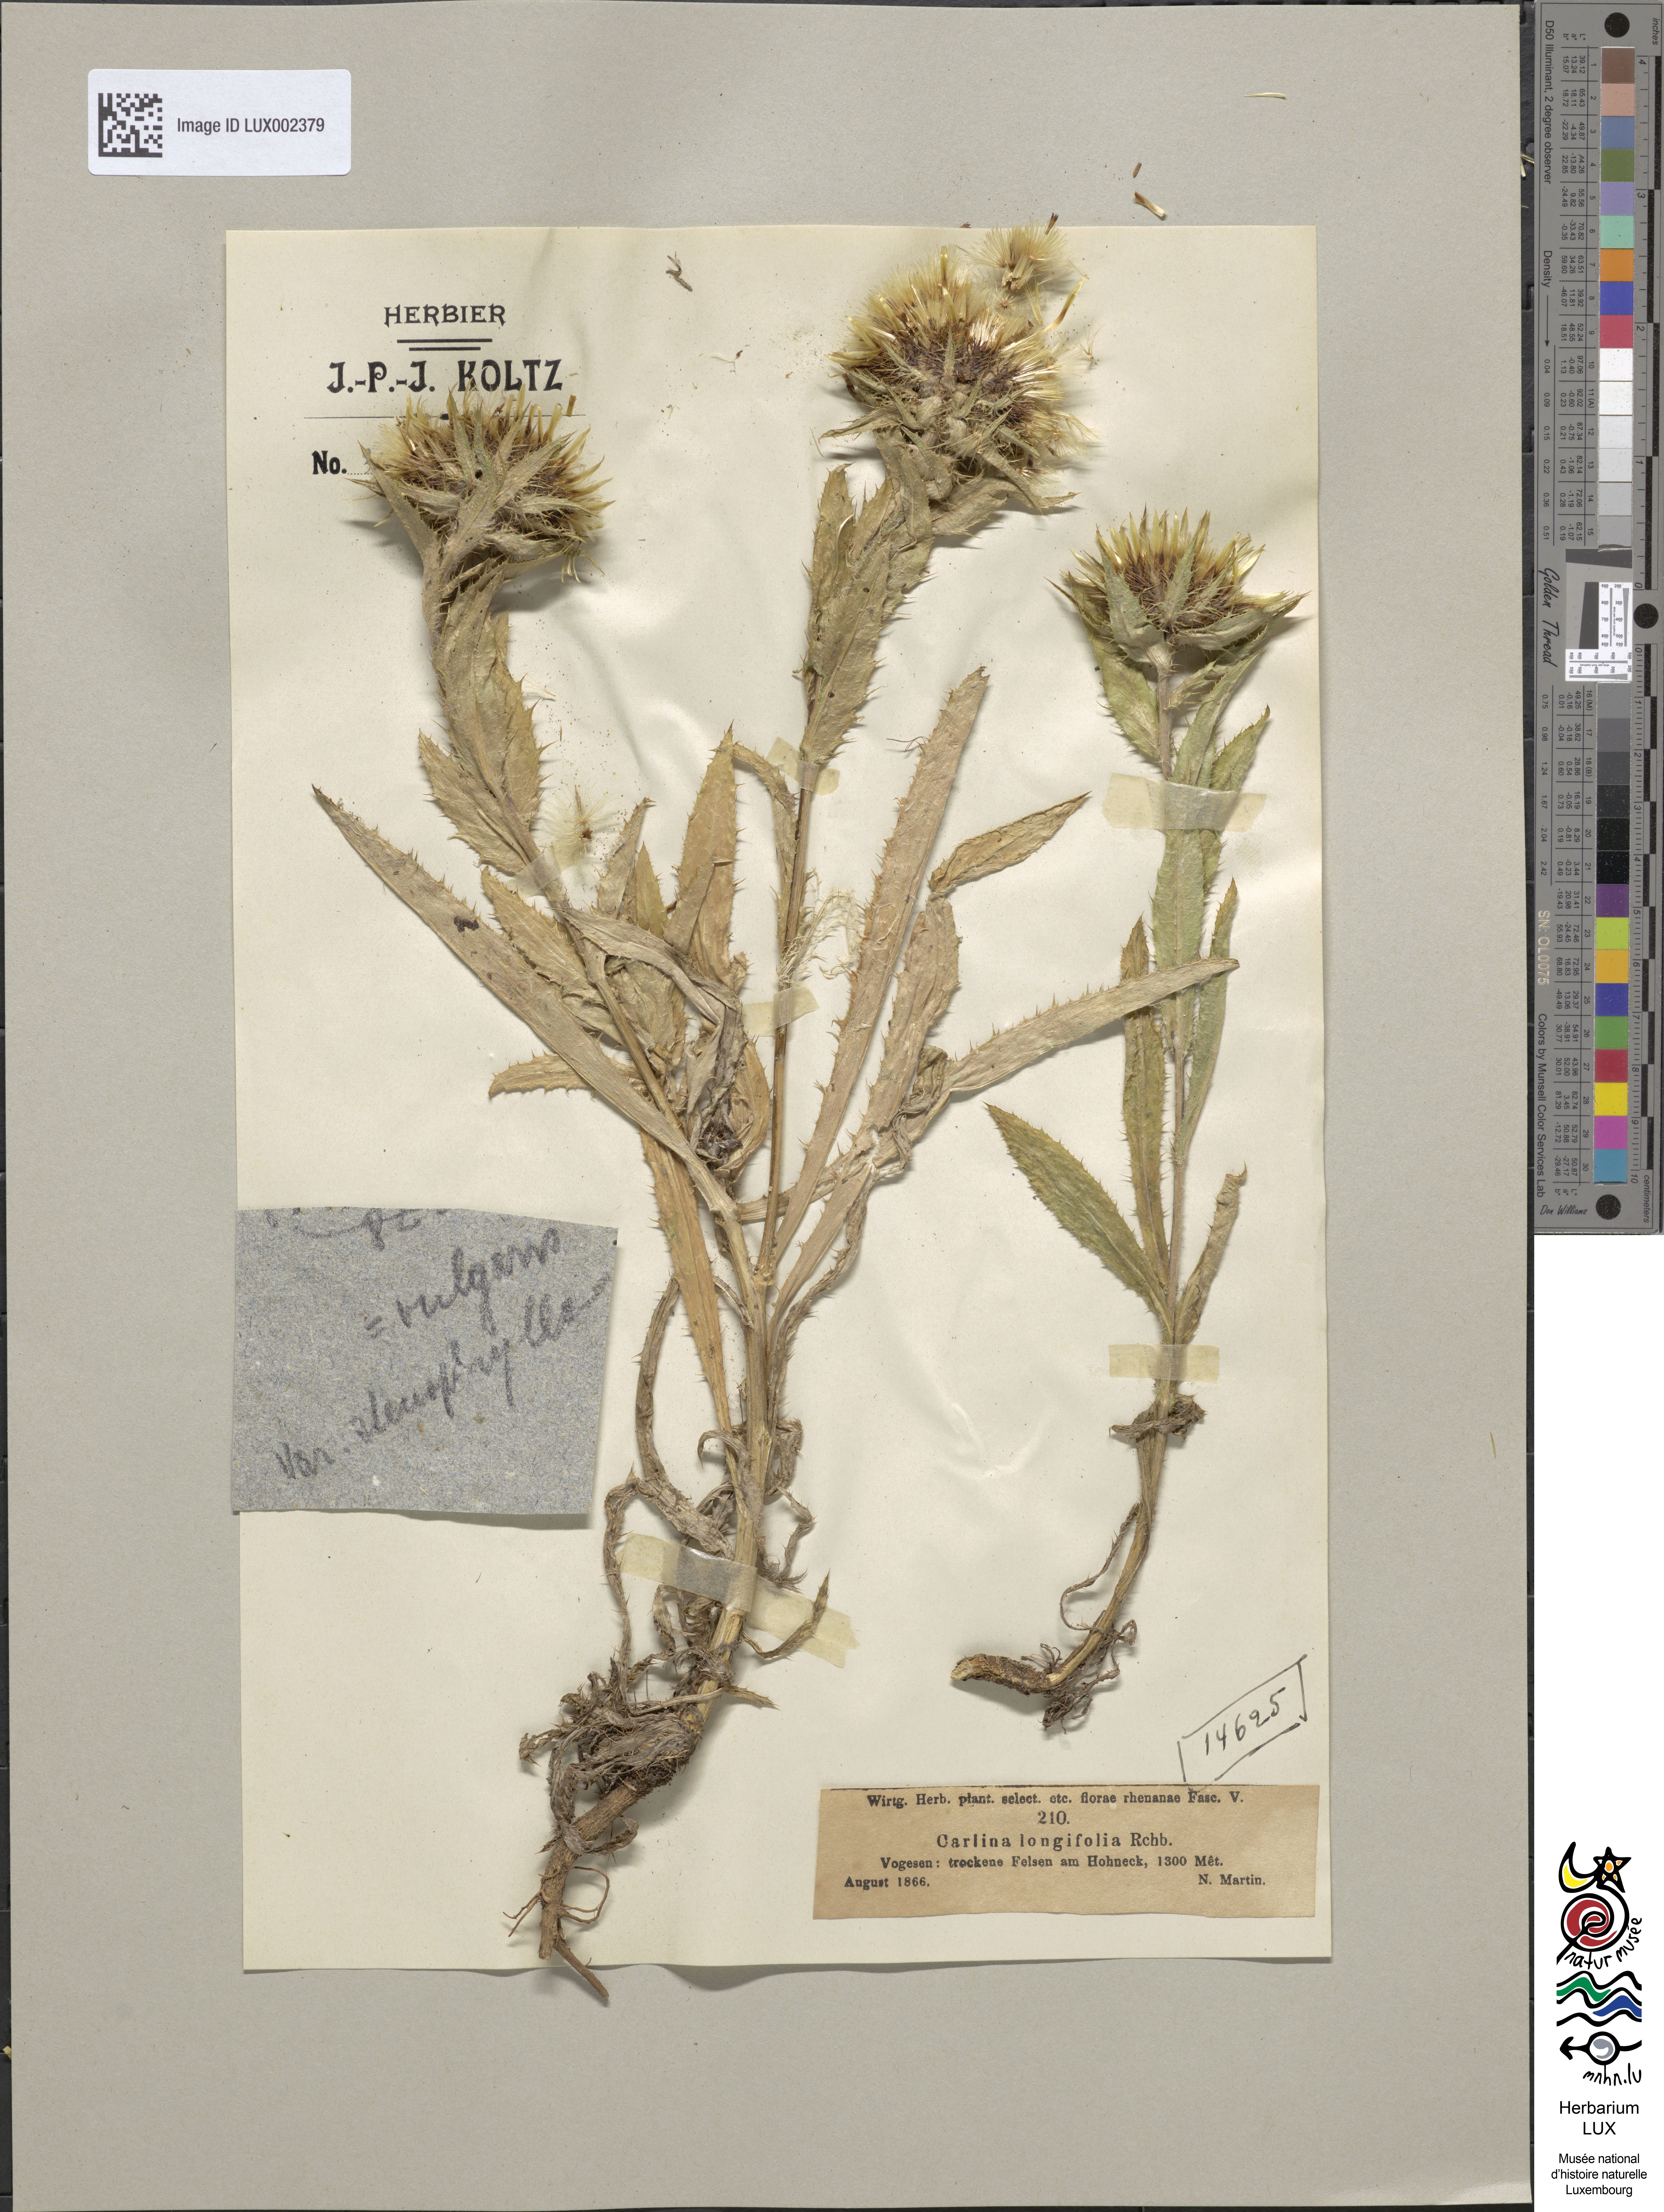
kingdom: Plantae
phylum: Tracheophyta
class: Magnoliopsida
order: Asterales
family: Asteraceae
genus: Carlina
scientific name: Carlina biebersteinii
